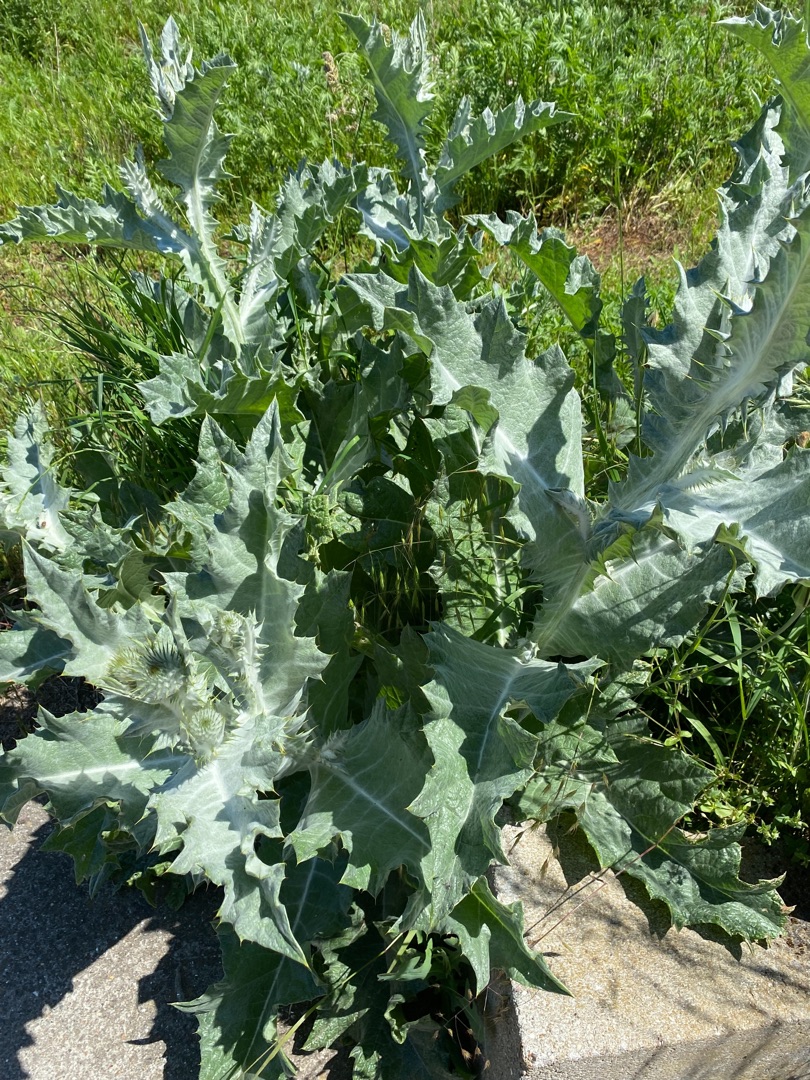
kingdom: Plantae
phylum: Tracheophyta
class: Magnoliopsida
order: Asterales
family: Asteraceae
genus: Onopordum
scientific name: Onopordum acanthium
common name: Æselfoder
